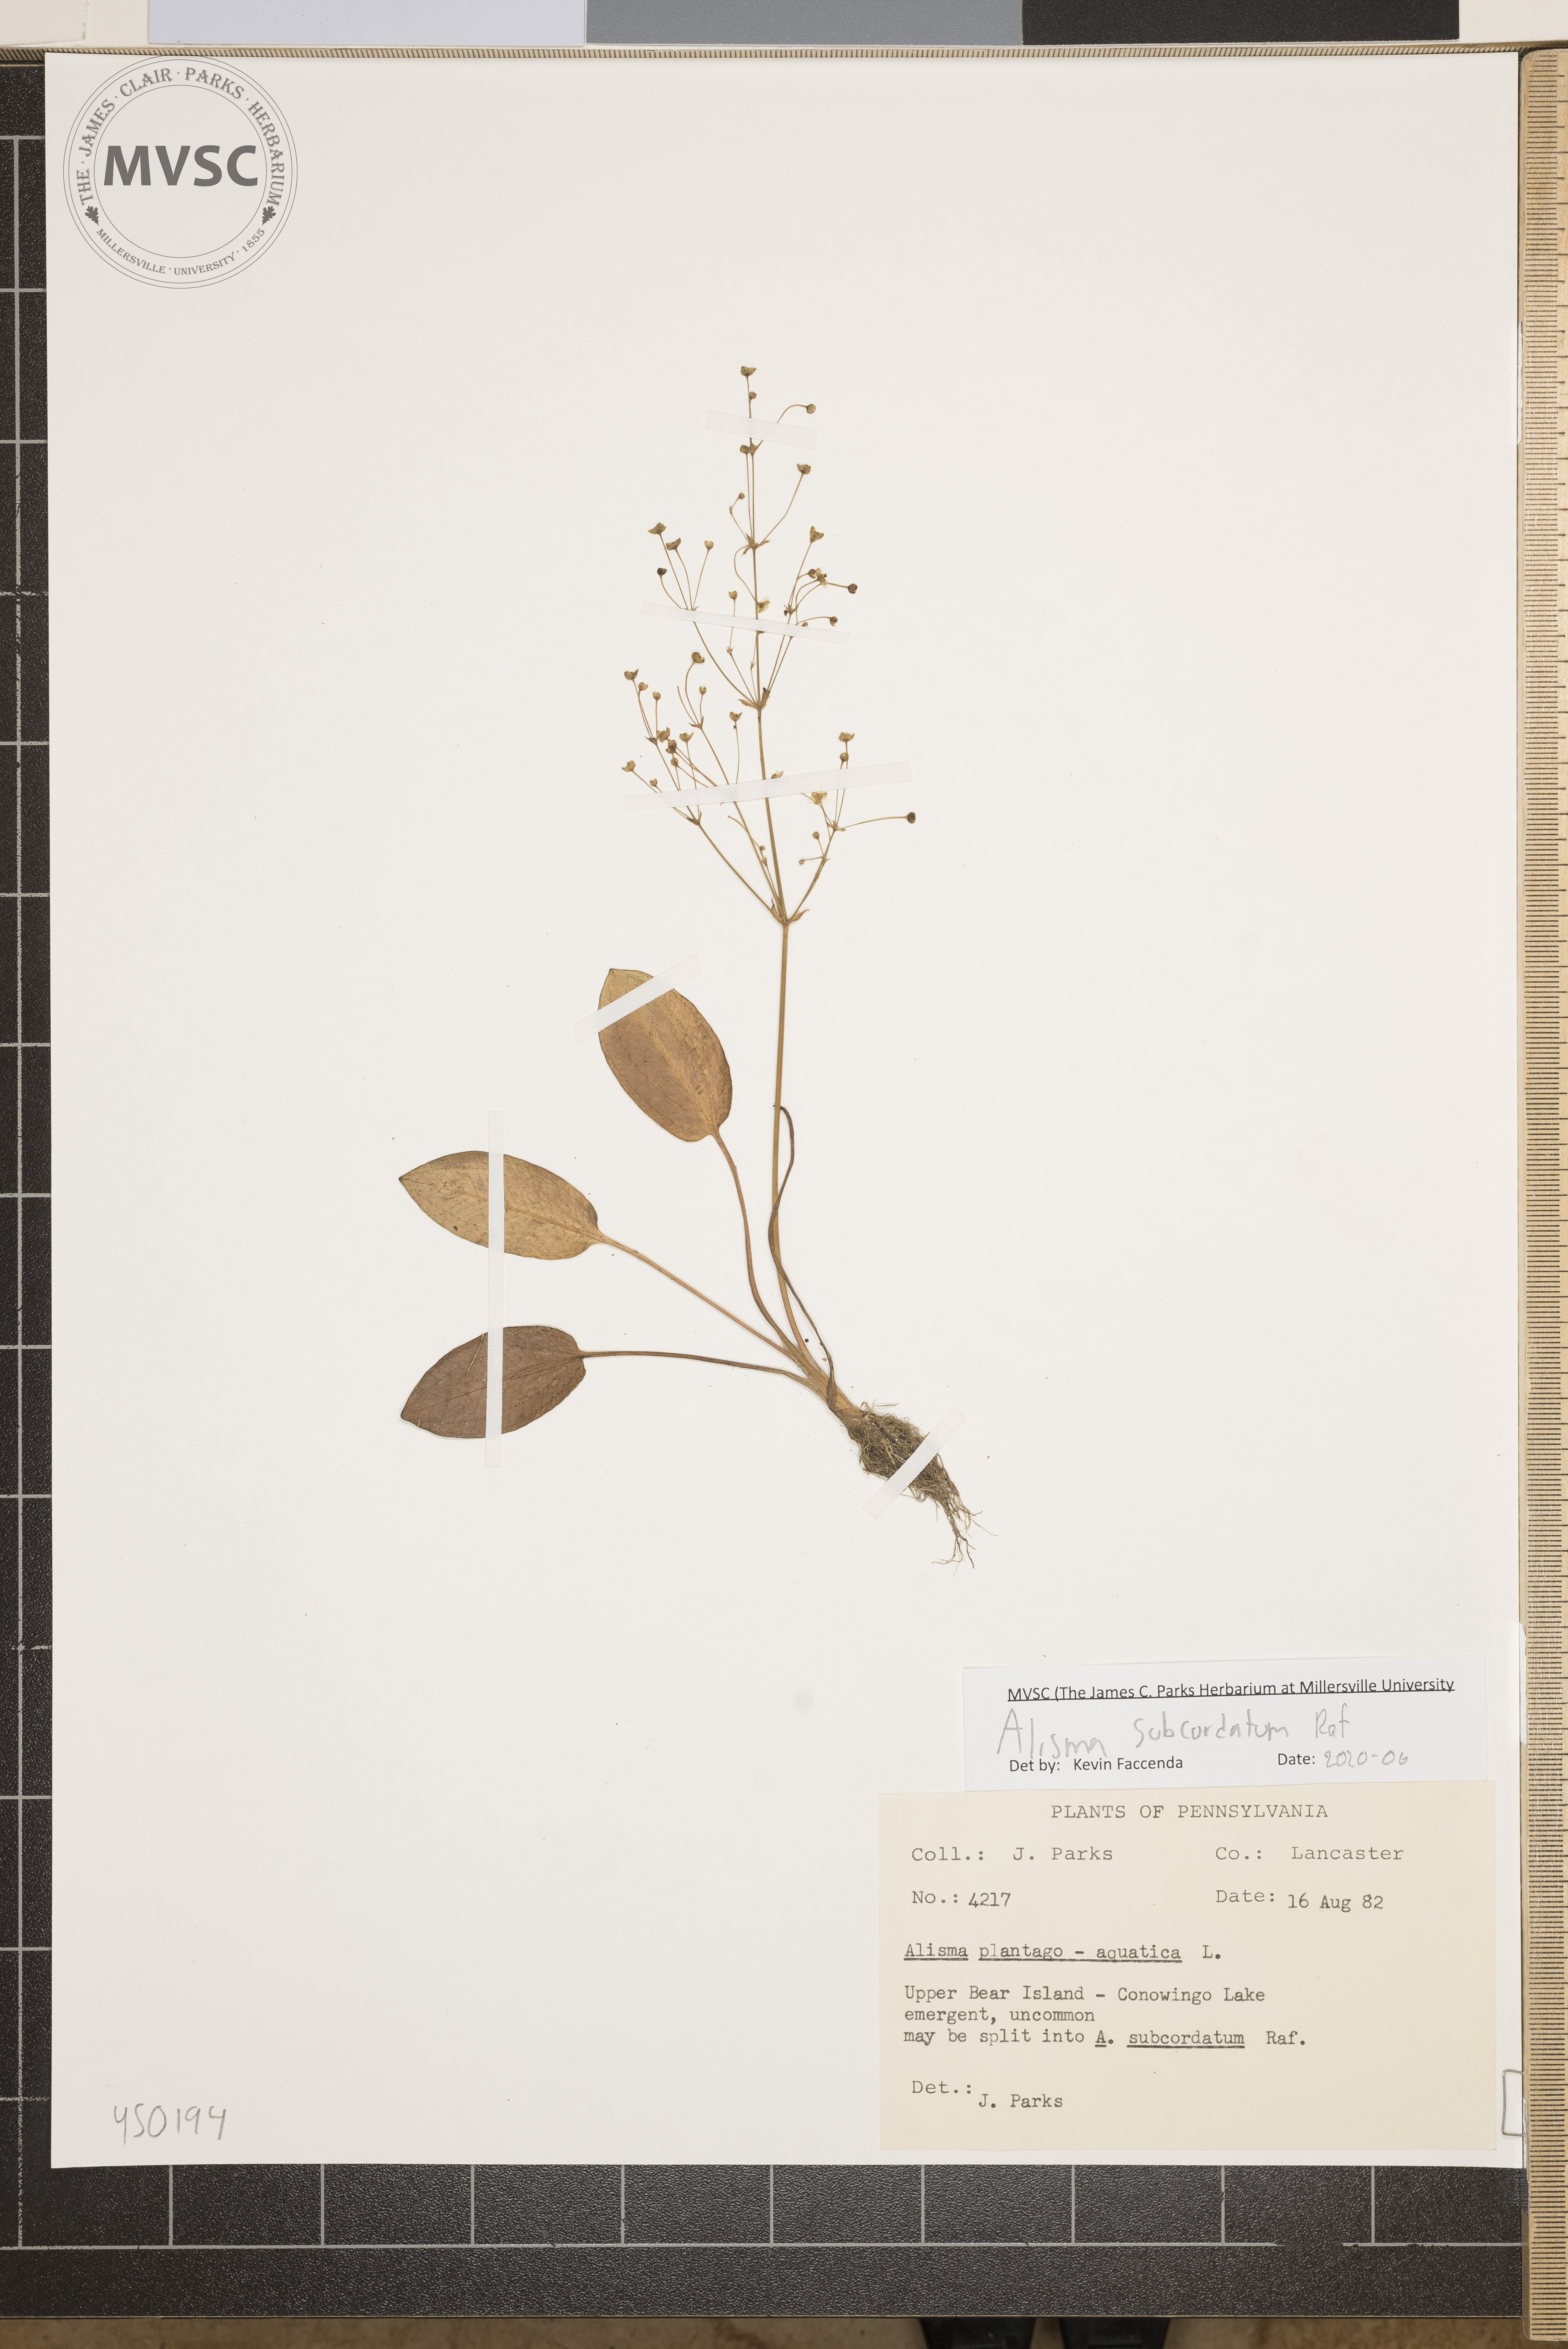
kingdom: Plantae
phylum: Tracheophyta
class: Liliopsida
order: Alismatales
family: Alismataceae
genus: Alisma
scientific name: Alisma subcordatum
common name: Southern water-plantain
